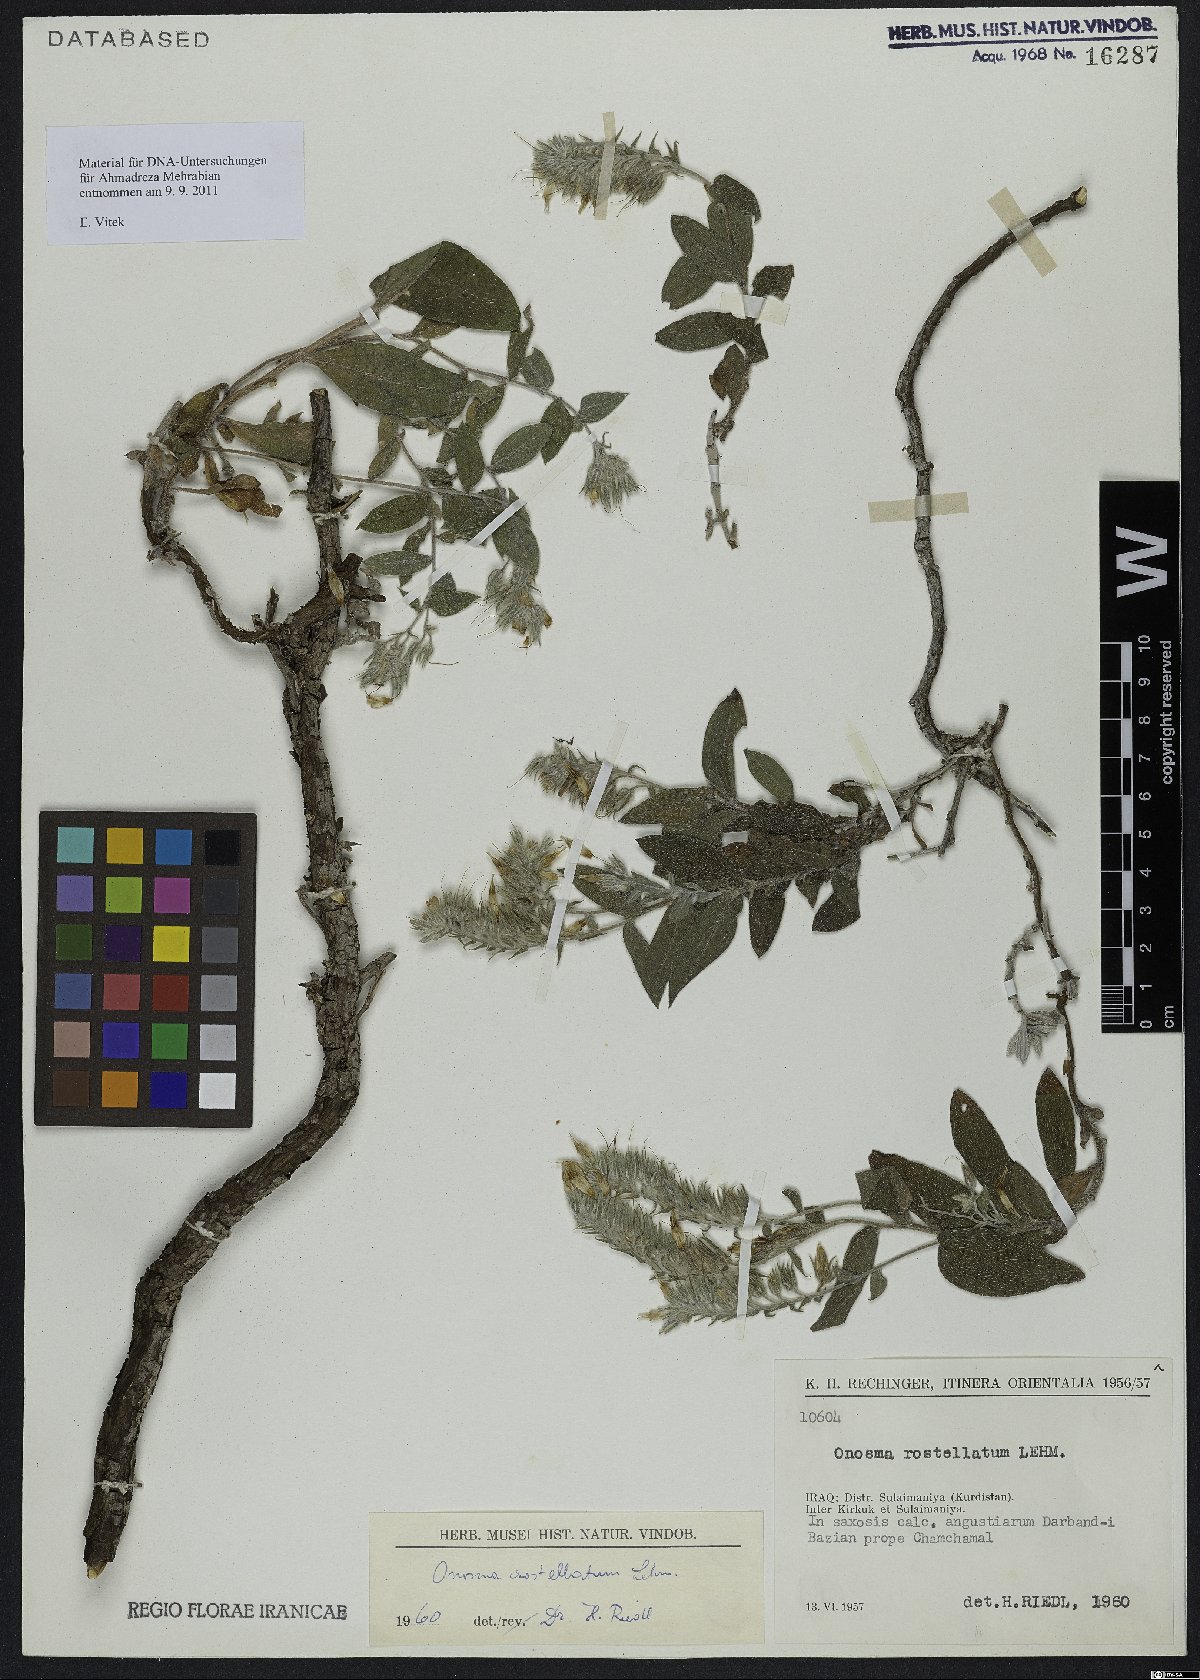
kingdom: Plantae
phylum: Tracheophyta
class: Magnoliopsida
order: Boraginales
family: Boraginaceae
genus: Onosma
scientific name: Onosma rostellata
